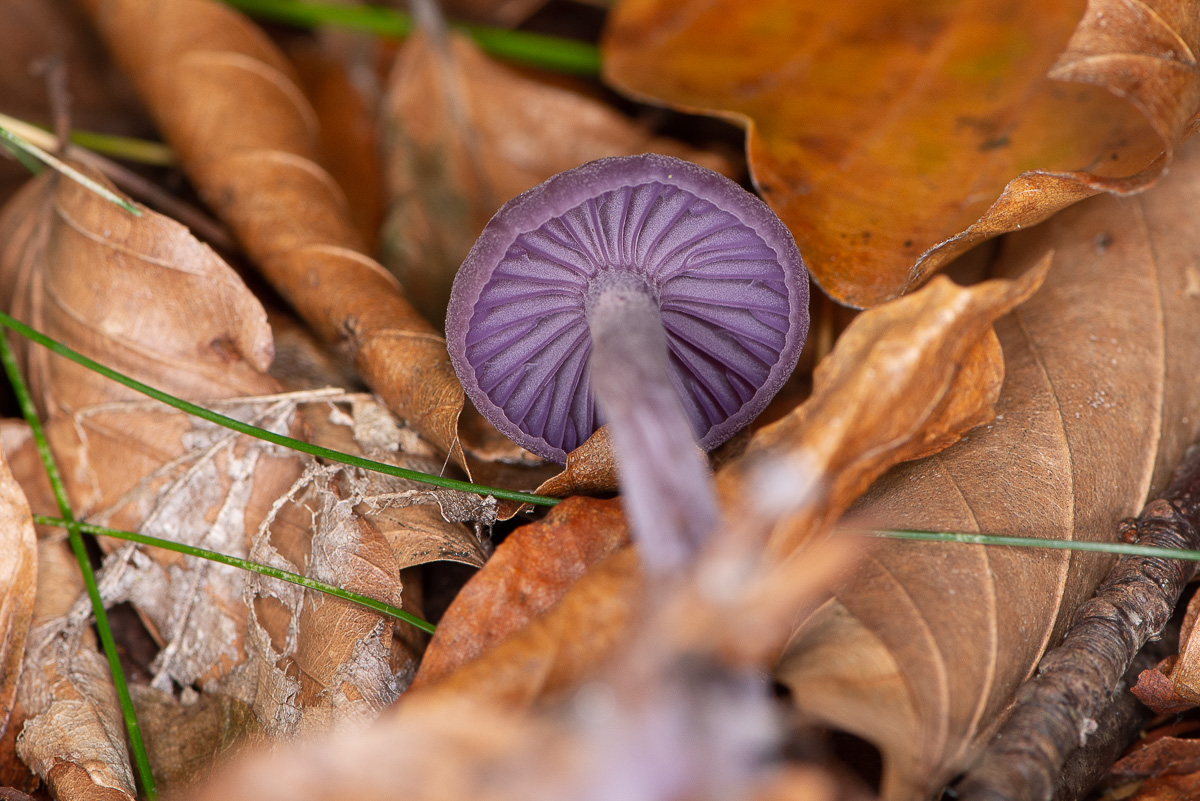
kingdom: Fungi
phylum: Basidiomycota
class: Agaricomycetes
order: Agaricales
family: Hydnangiaceae
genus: Laccaria
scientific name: Laccaria amethystina
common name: violet ametysthat
